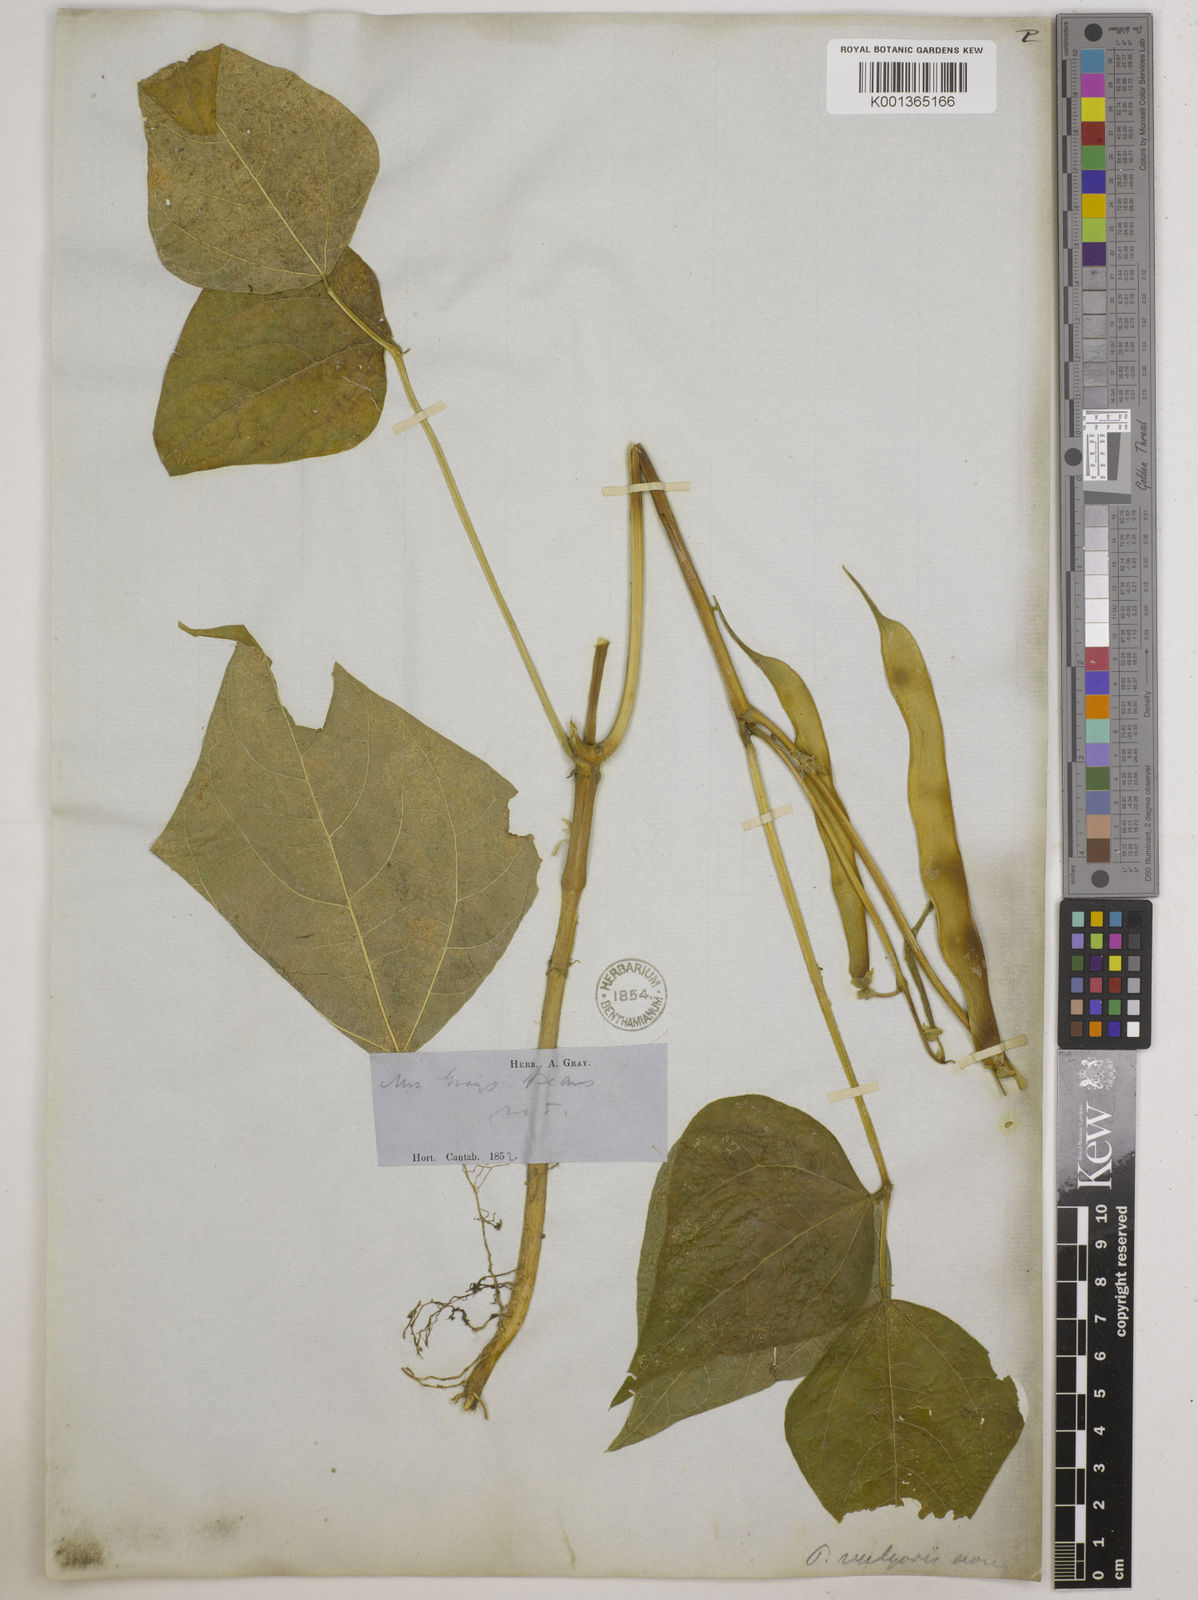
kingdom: Plantae
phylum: Tracheophyta
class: Magnoliopsida
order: Fabales
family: Fabaceae
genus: Phaseolus
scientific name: Phaseolus vulgaris
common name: Bean
